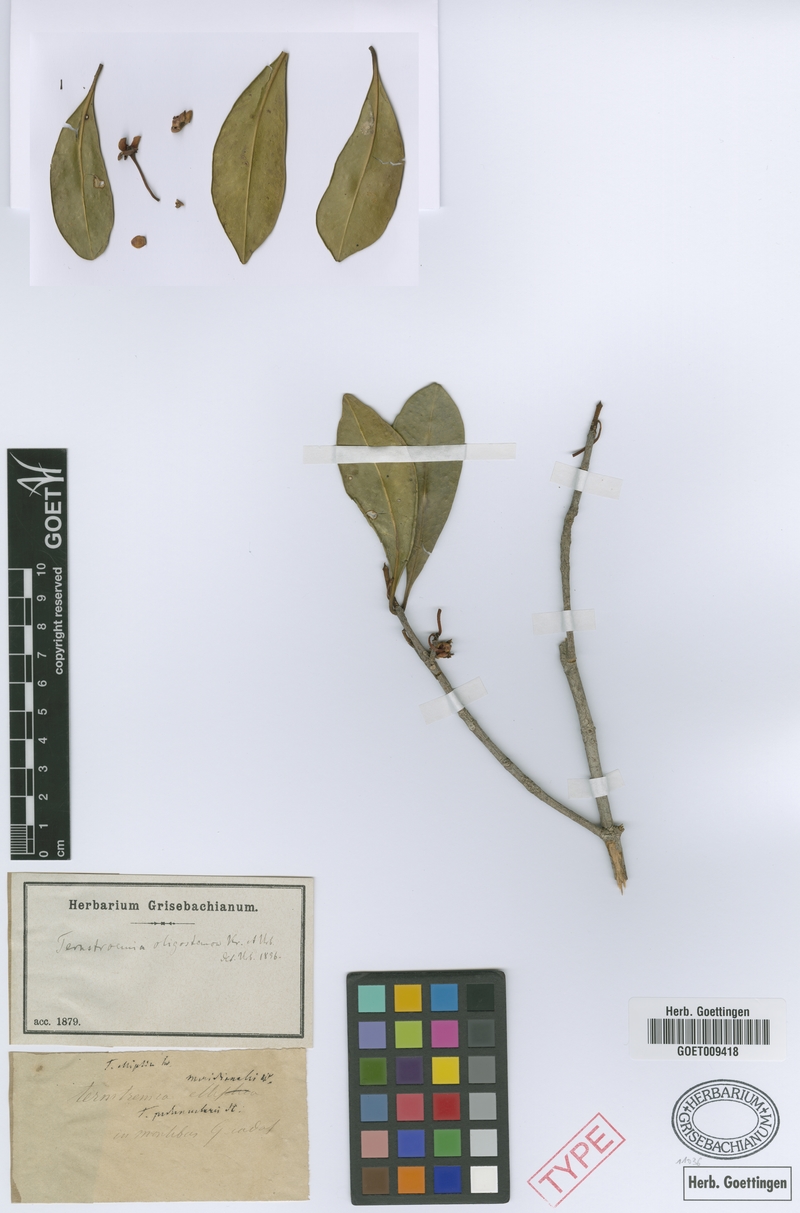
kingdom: Plantae
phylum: Tracheophyta
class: Magnoliopsida
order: Ericales
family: Pentaphylacaceae
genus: Ternstroemia
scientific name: Ternstroemia oligostemon
